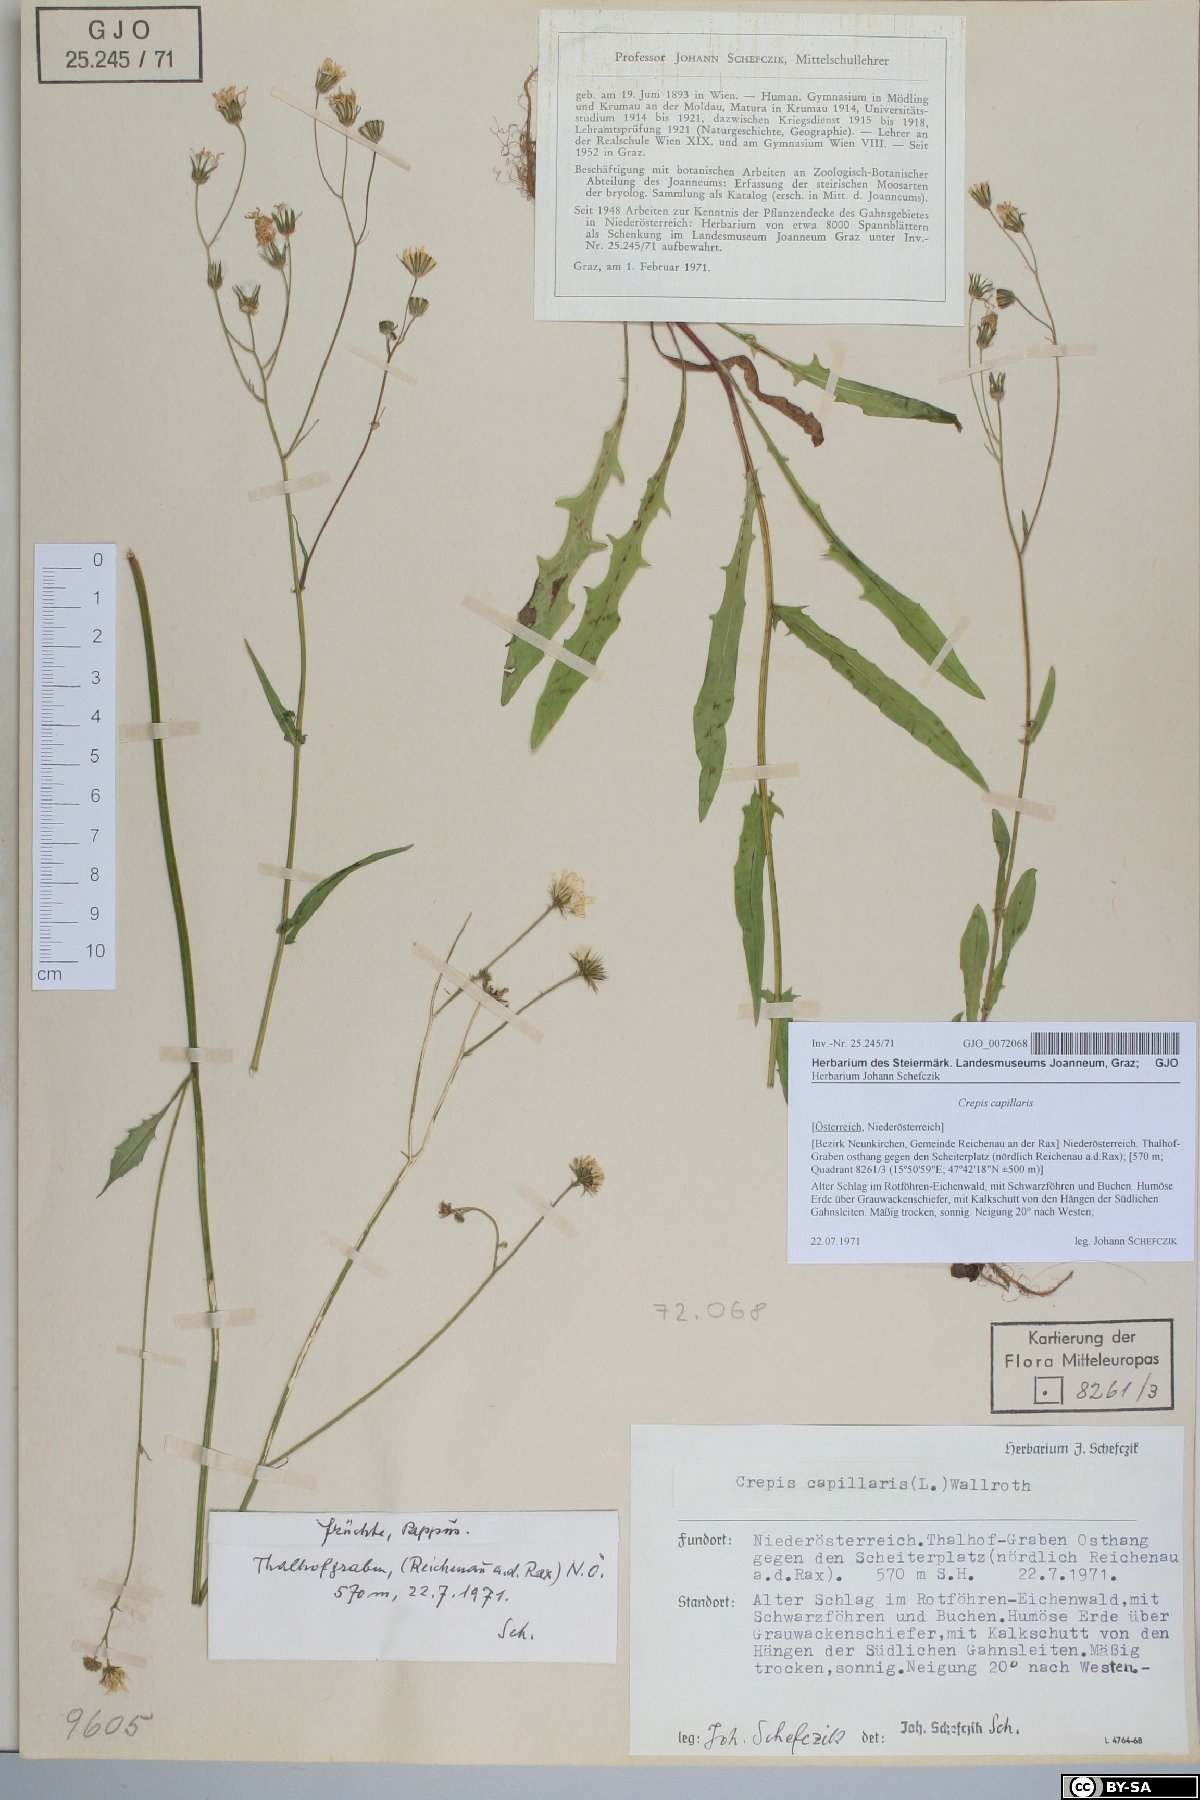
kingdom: Plantae
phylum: Tracheophyta
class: Magnoliopsida
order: Asterales
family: Asteraceae
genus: Crepis
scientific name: Crepis capillaris
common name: Smooth hawksbeard
